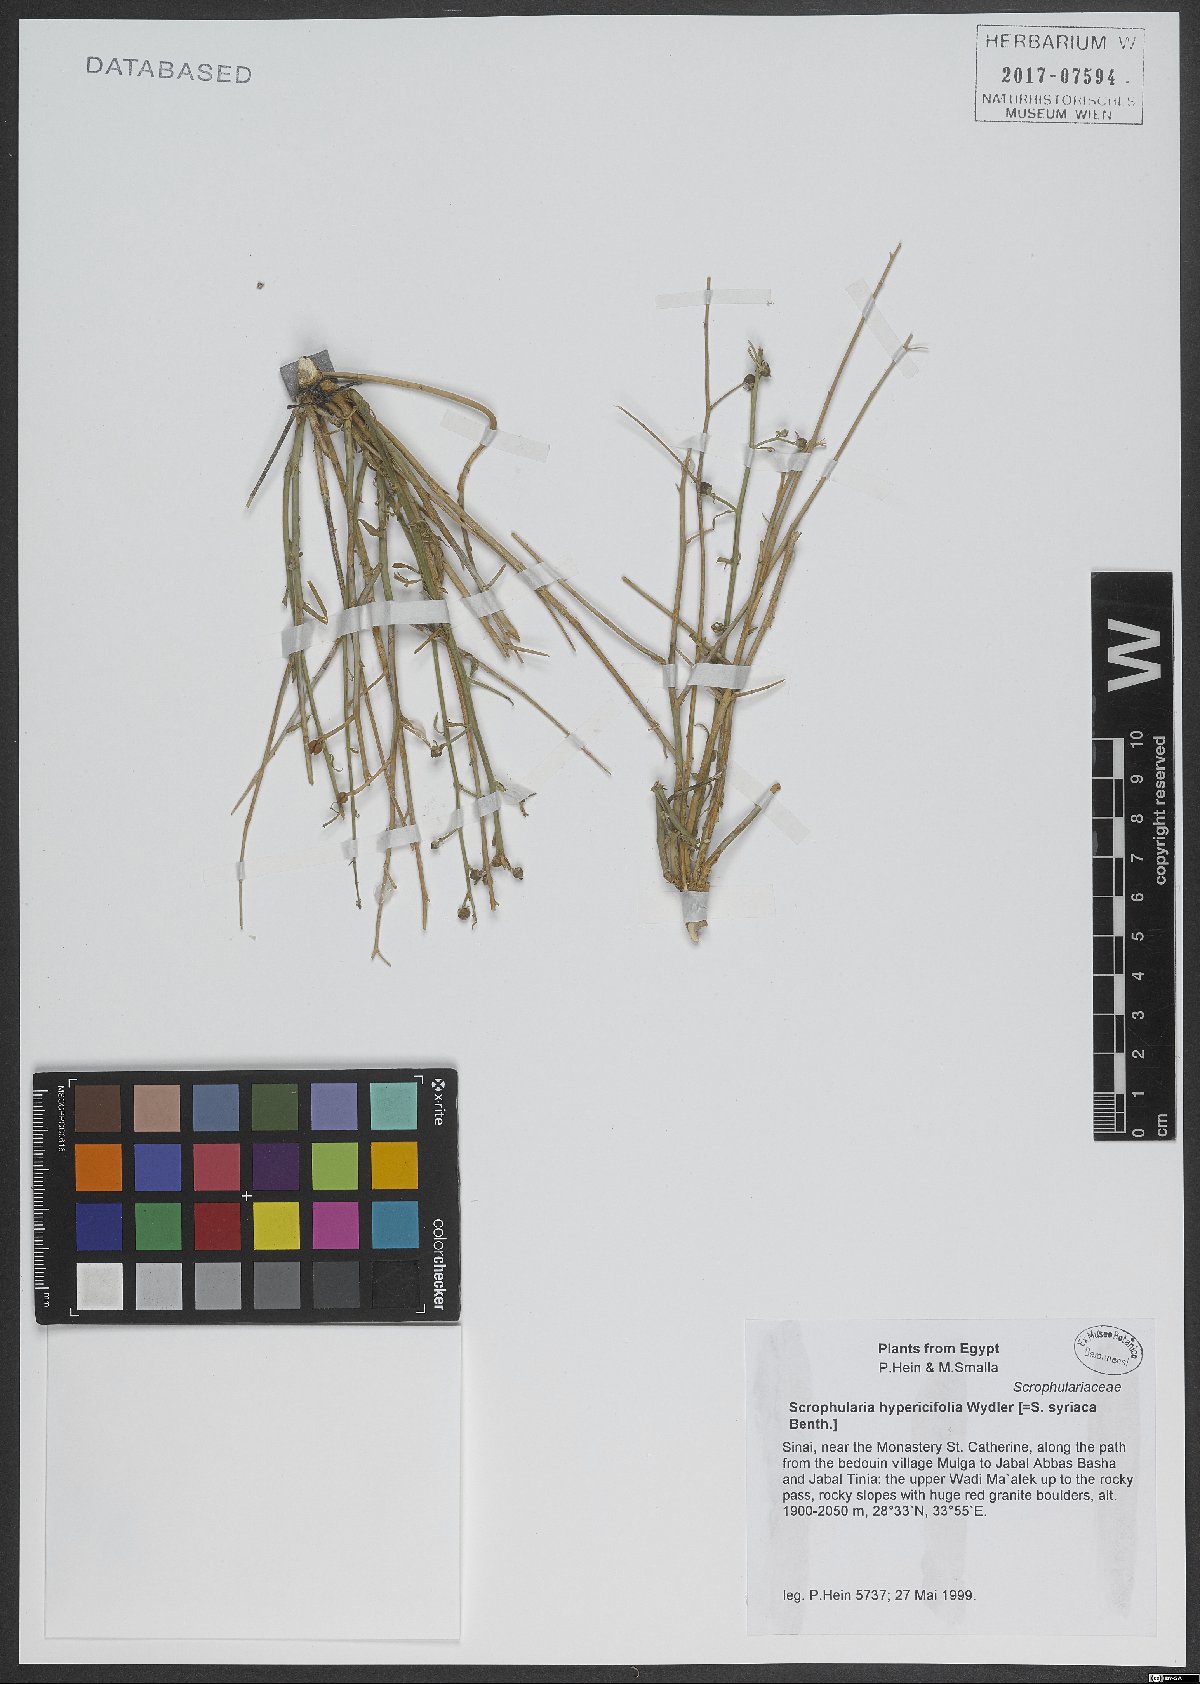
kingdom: Plantae
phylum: Tracheophyta
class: Magnoliopsida
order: Lamiales
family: Scrophulariaceae
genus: Scrophularia
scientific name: Scrophularia hypericifolia
